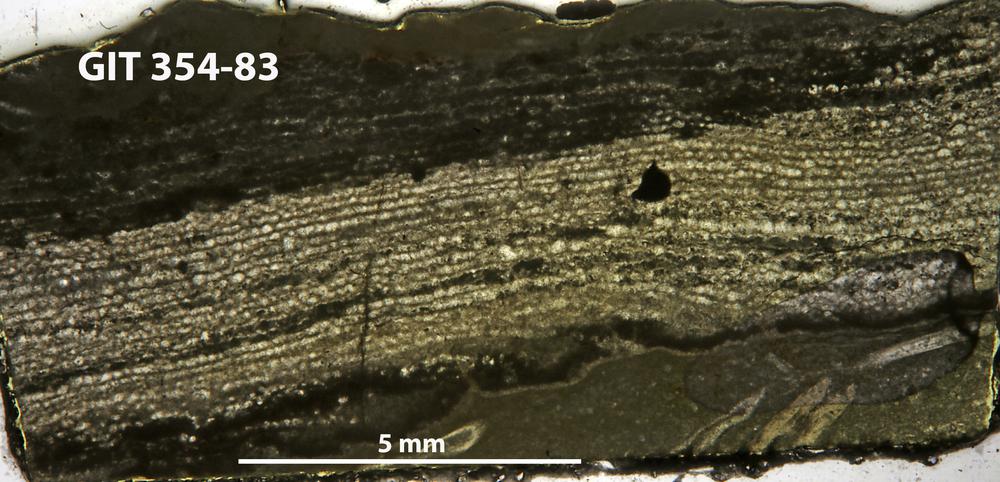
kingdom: Animalia
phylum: Porifera
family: Clathrodictyidae
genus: Clathrodictyon
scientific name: Clathrodictyon gregale
